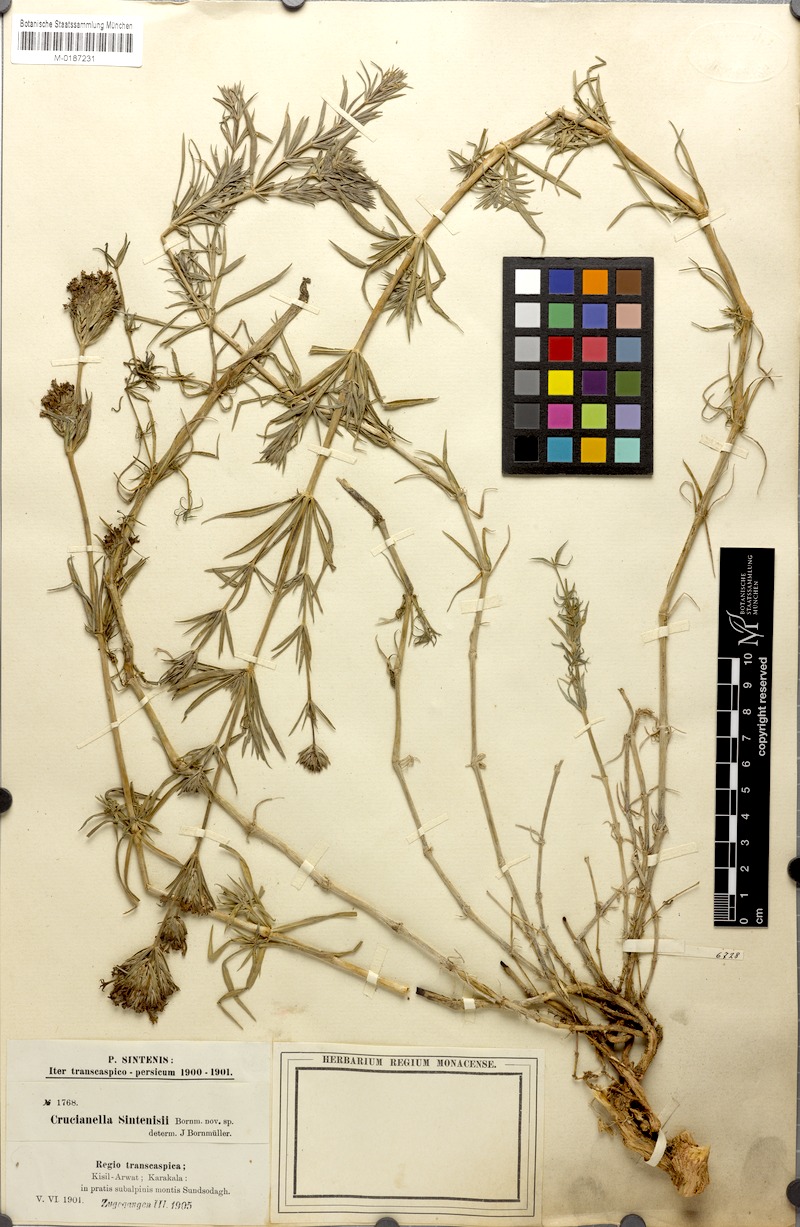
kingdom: Plantae
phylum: Tracheophyta
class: Magnoliopsida
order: Gentianales
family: Rubiaceae
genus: Crucianella
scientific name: Crucianella sintenisii
